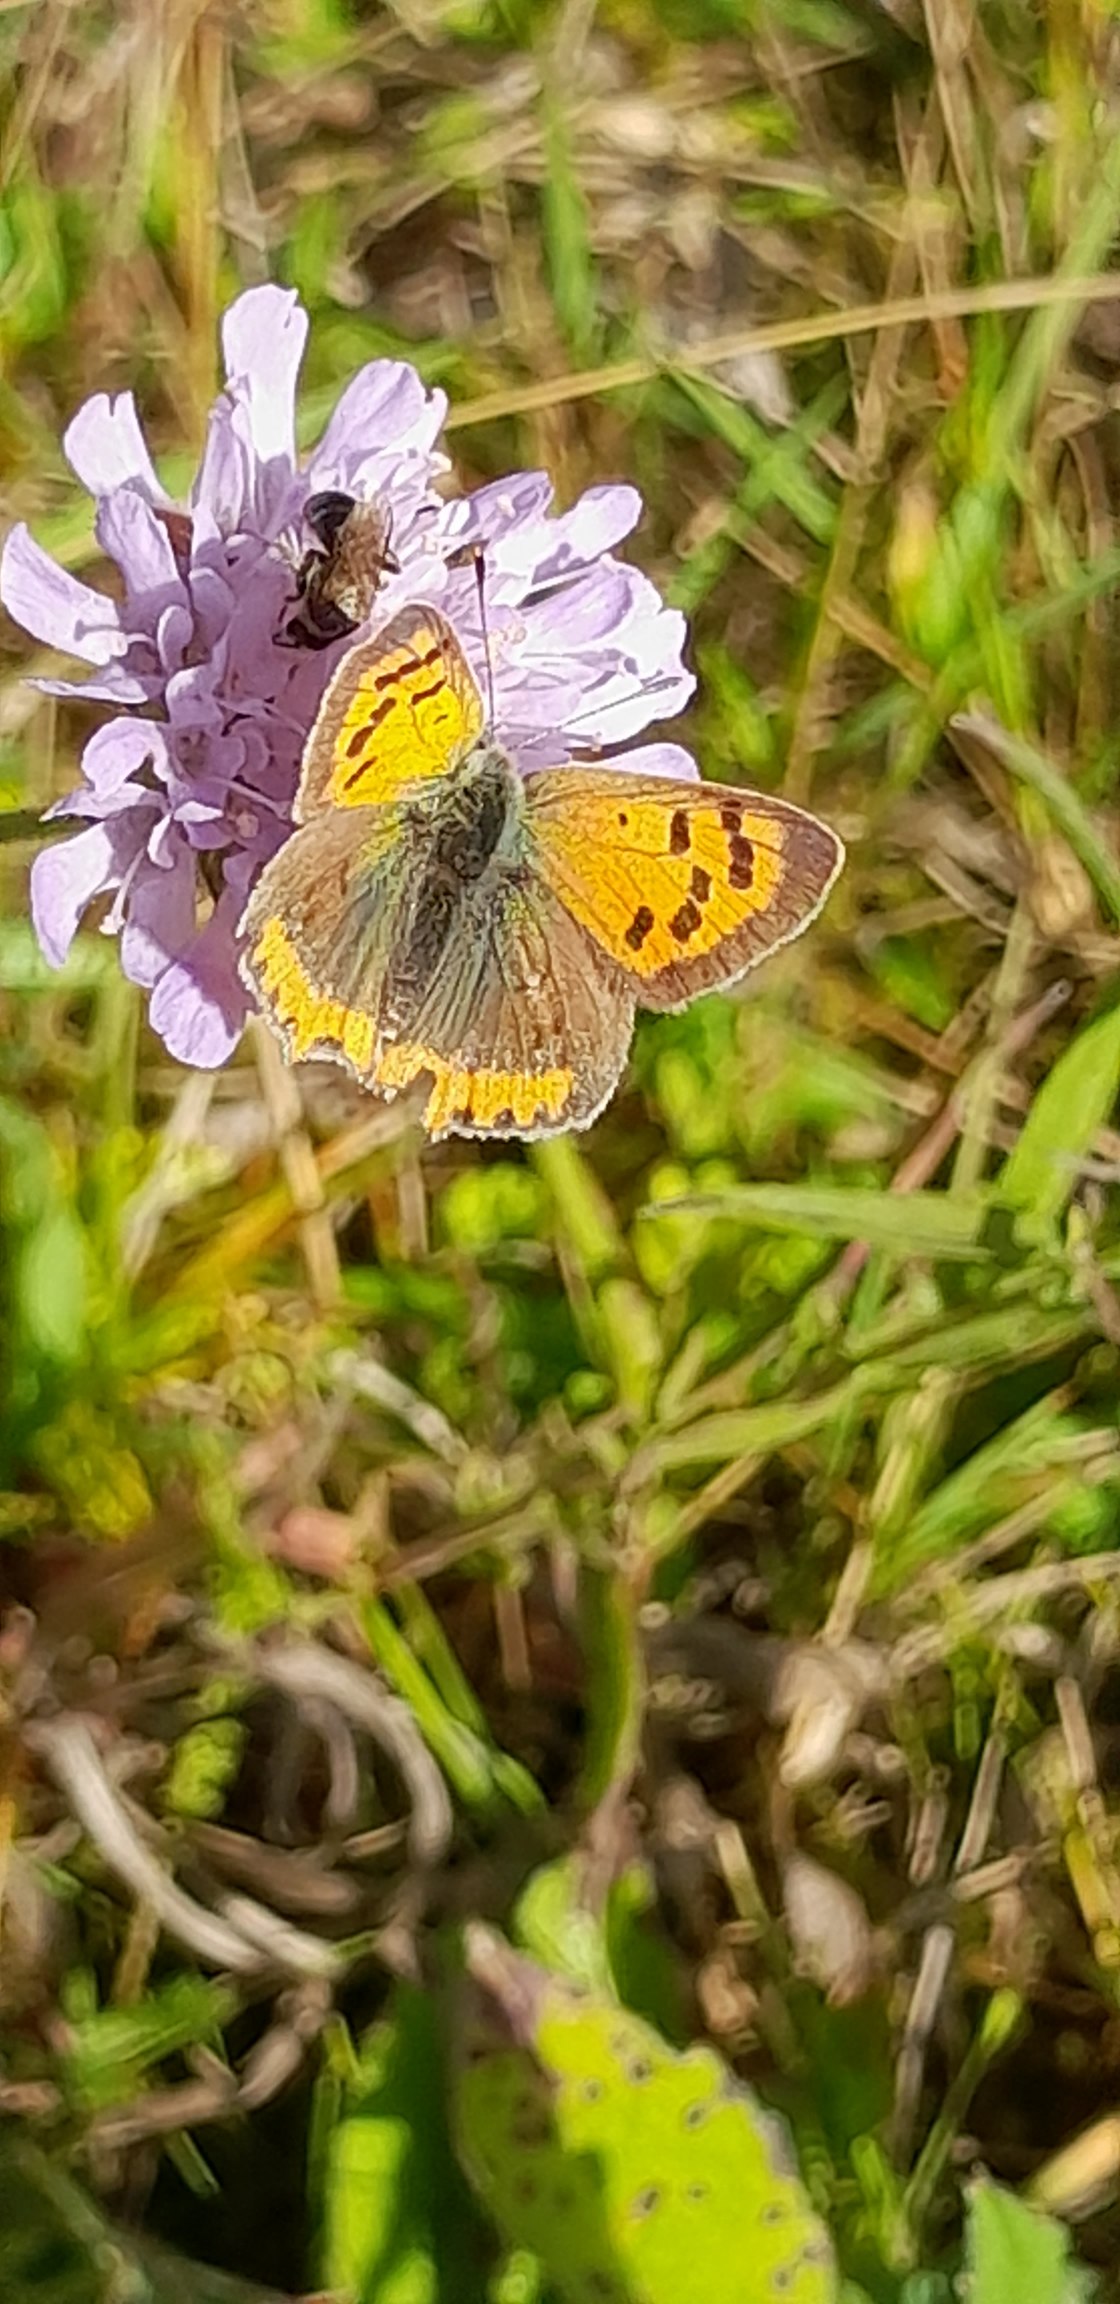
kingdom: Animalia
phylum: Arthropoda
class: Insecta
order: Lepidoptera
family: Lycaenidae
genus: Lycaena
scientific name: Lycaena phlaeas
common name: Lille ildfugl
